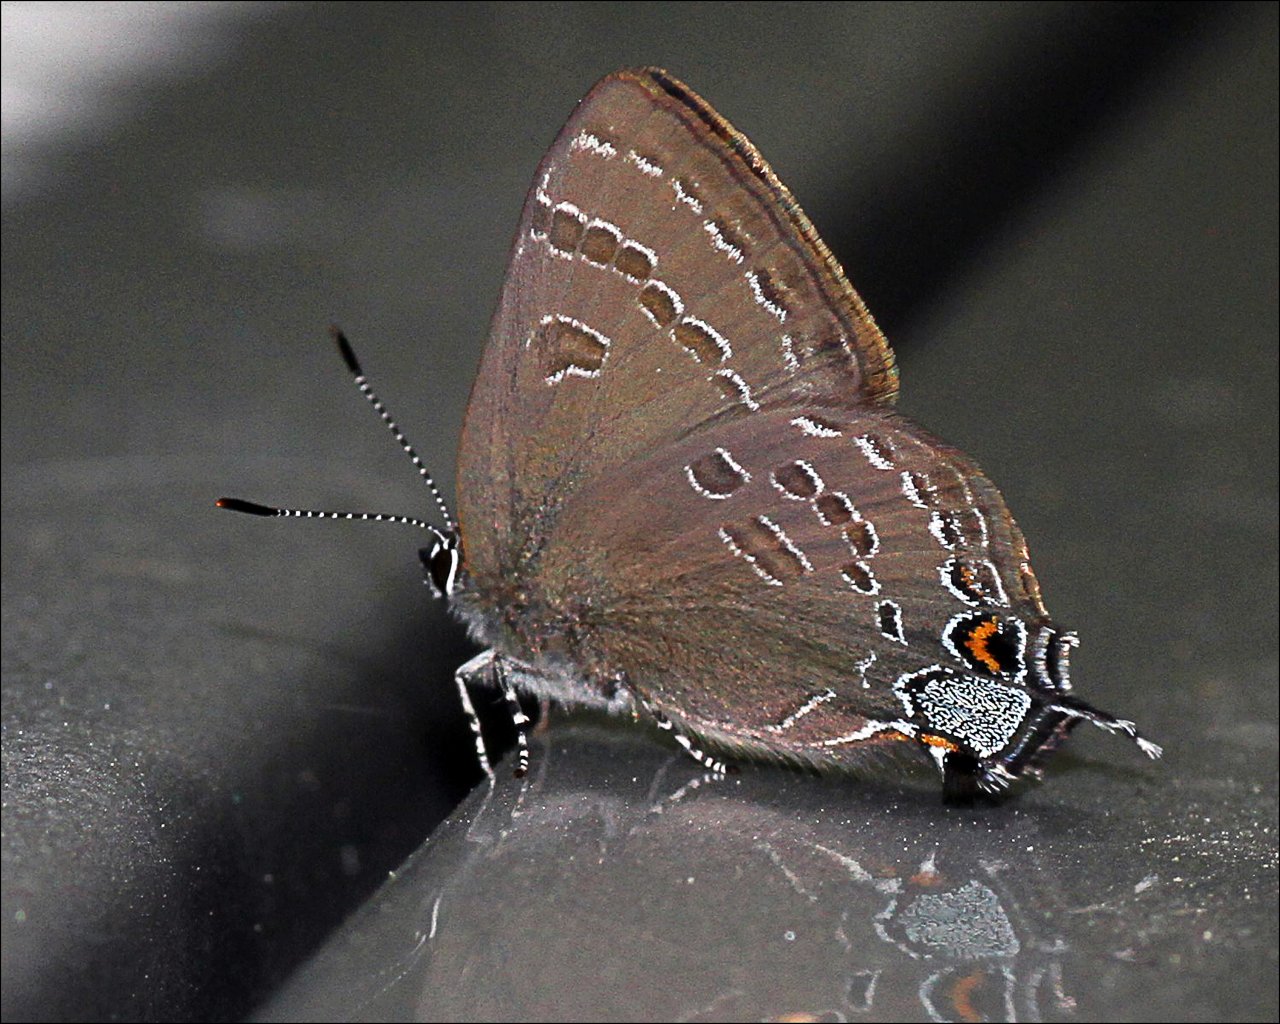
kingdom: Animalia
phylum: Arthropoda
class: Insecta
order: Lepidoptera
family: Lycaenidae
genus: Satyrium
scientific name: Satyrium
